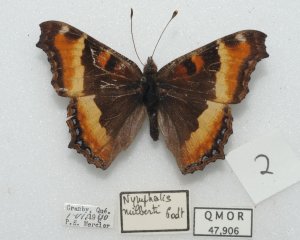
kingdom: Animalia
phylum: Arthropoda
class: Insecta
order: Lepidoptera
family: Nymphalidae
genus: Aglais
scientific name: Aglais milberti
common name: Milbert's Tortoiseshell
